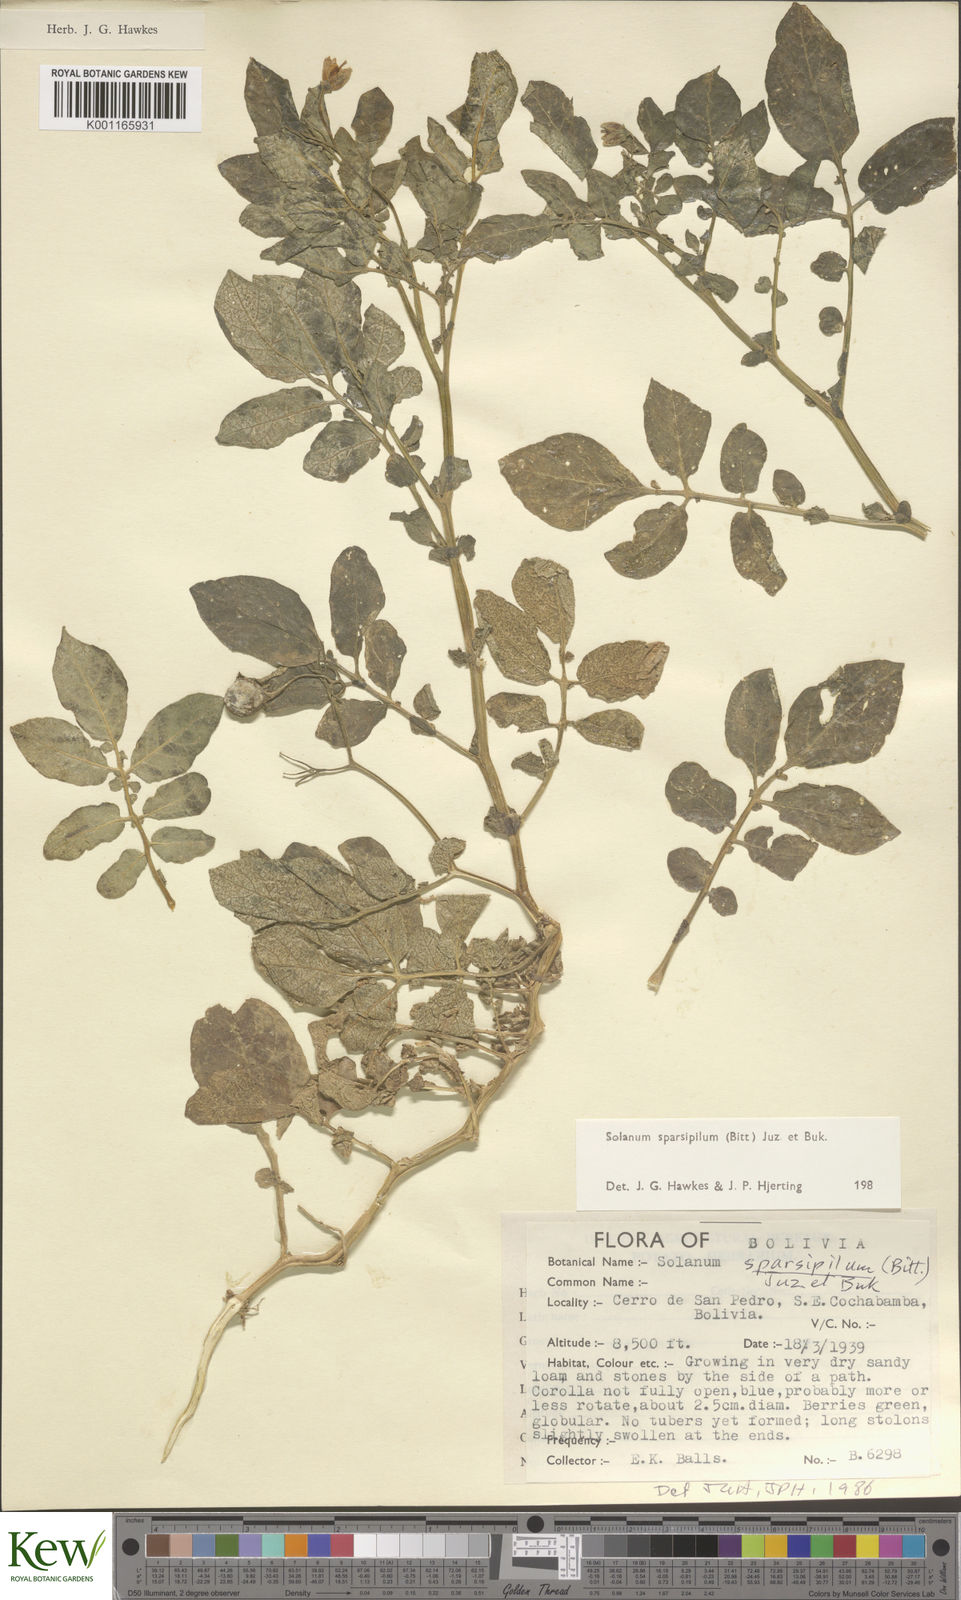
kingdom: Plantae
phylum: Tracheophyta
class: Magnoliopsida
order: Solanales
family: Solanaceae
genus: Solanum
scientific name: Solanum brevicaule
